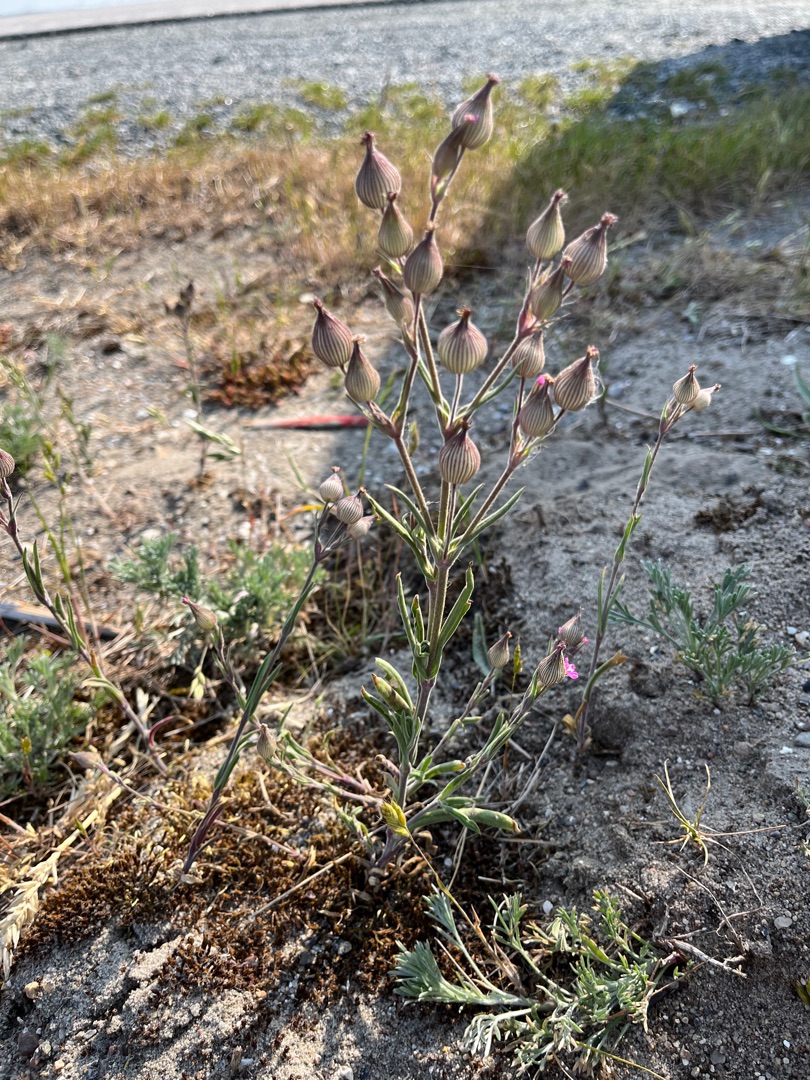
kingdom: Plantae
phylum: Tracheophyta
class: Magnoliopsida
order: Caryophyllales
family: Caryophyllaceae
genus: Silene
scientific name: Silene conica
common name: Kegle-limurt
